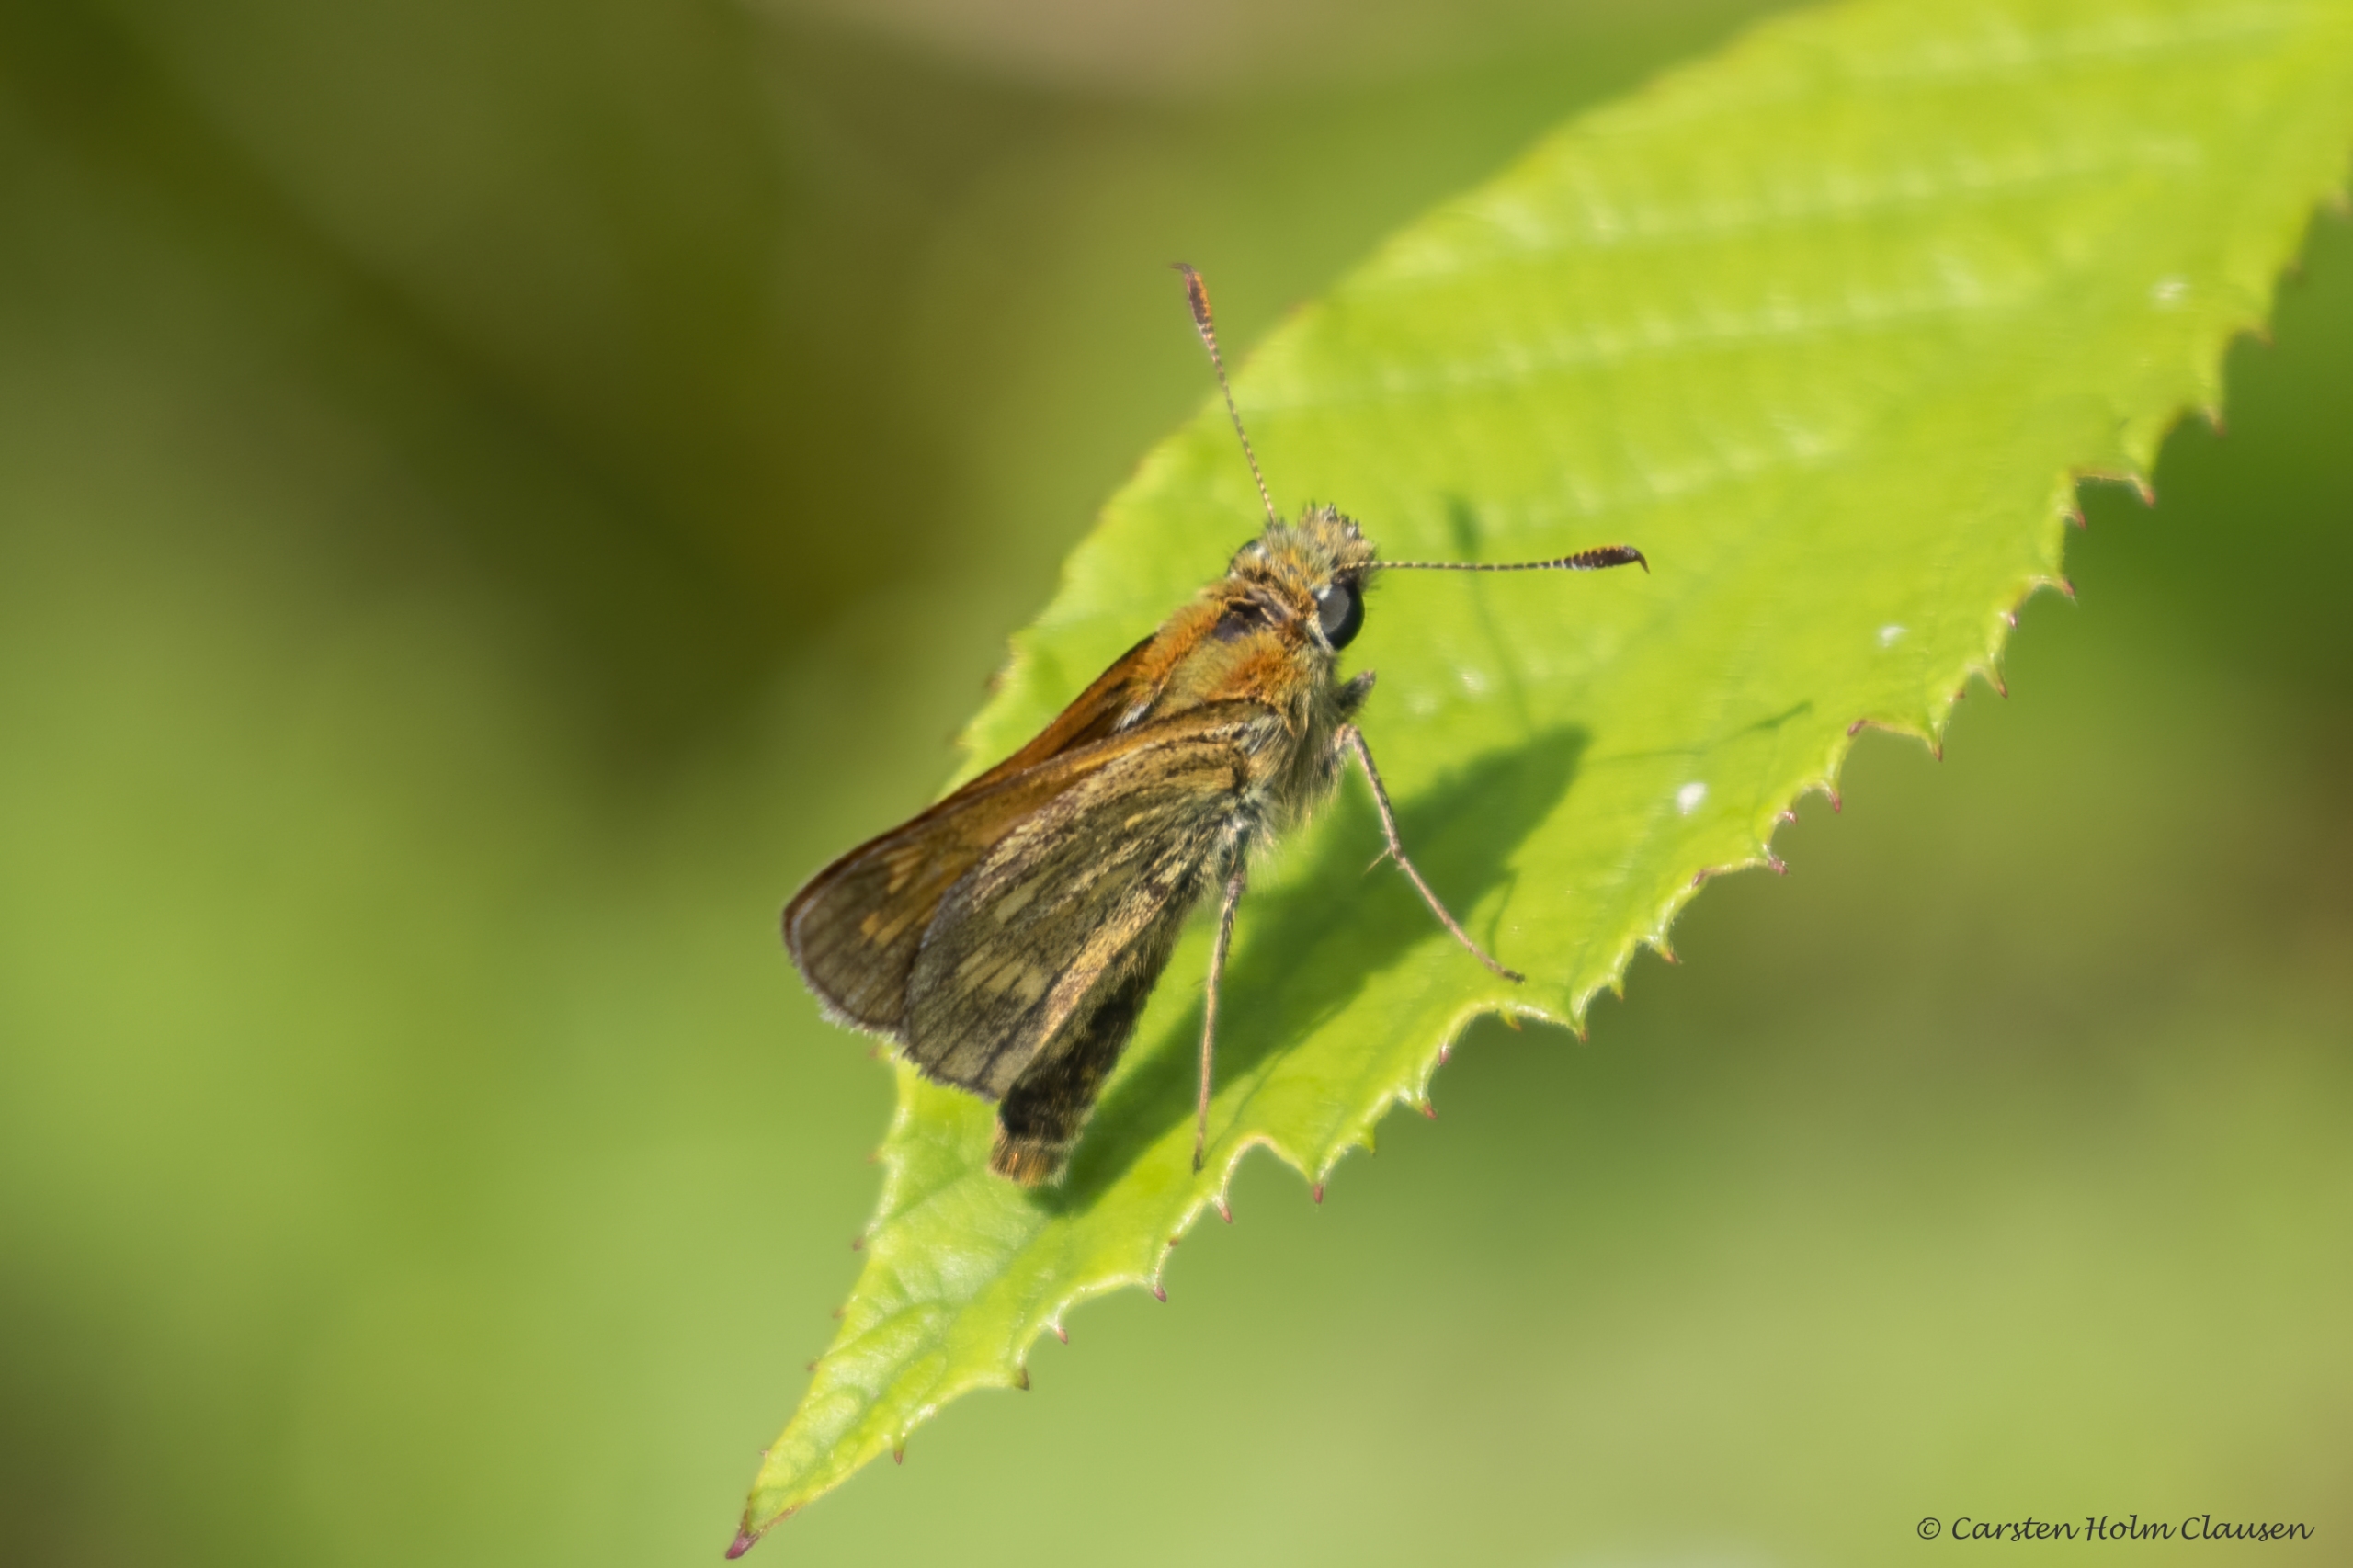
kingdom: Animalia
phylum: Arthropoda
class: Insecta
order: Lepidoptera
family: Hesperiidae
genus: Ochlodes
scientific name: Ochlodes venata
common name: Stor bredpande
